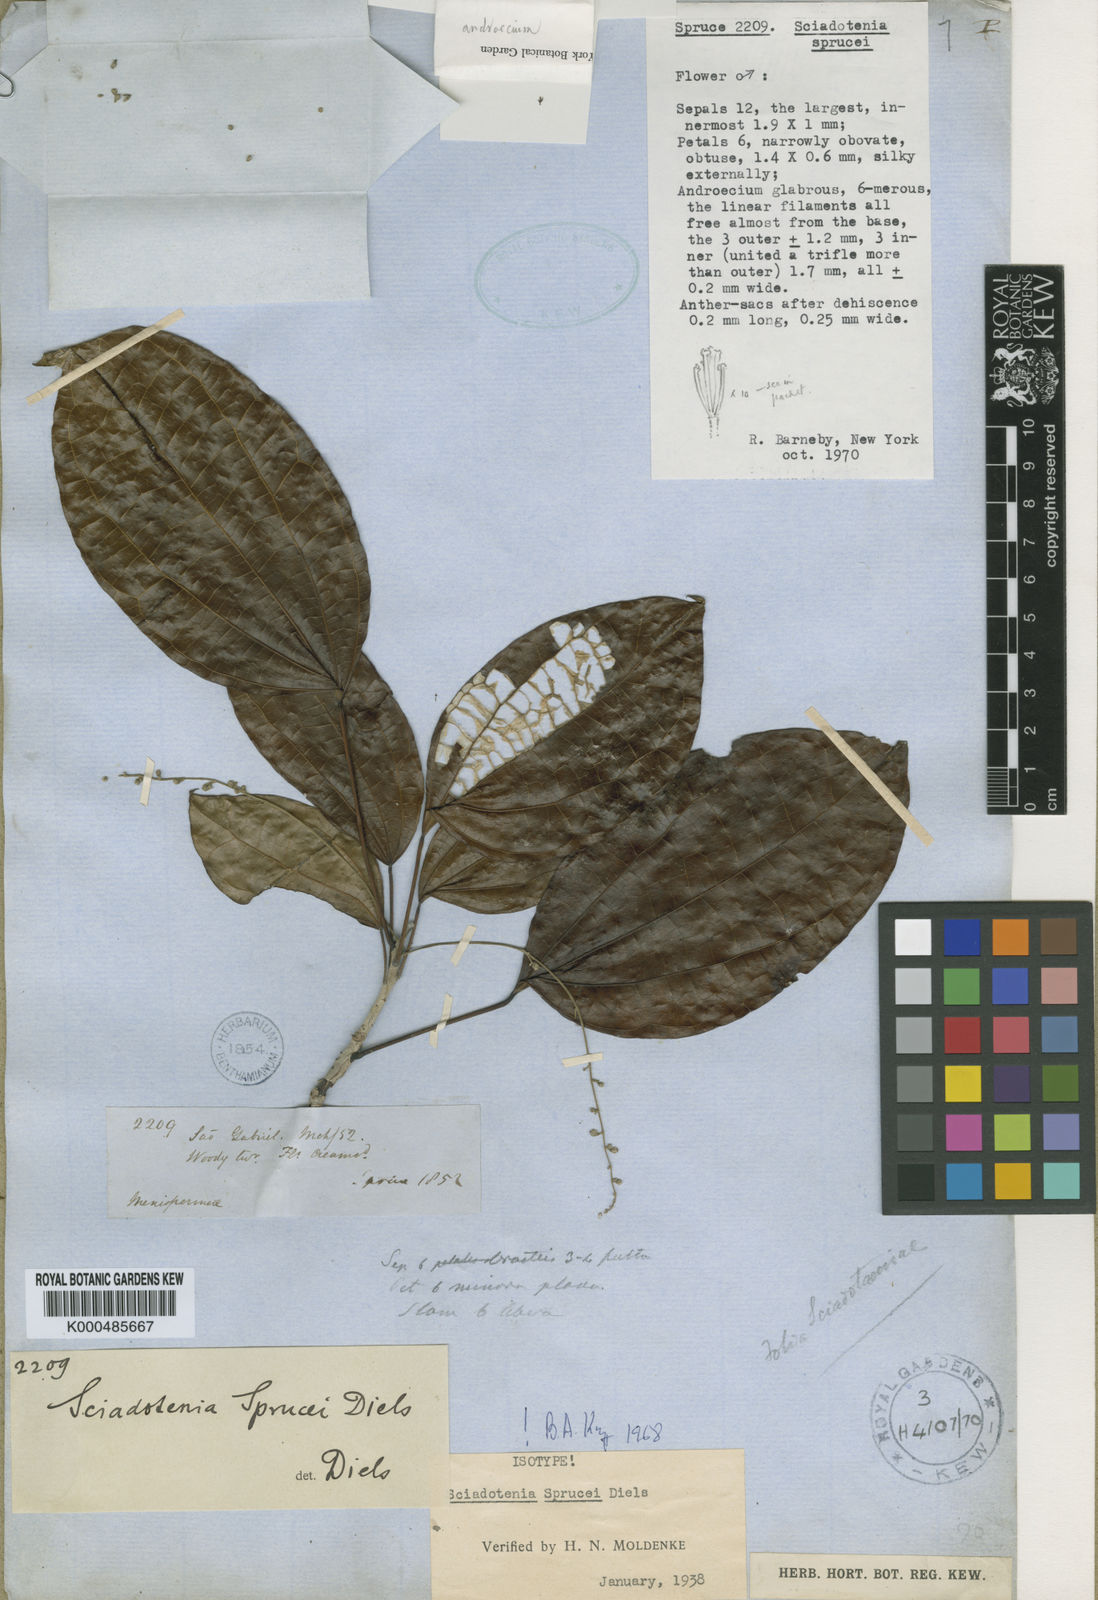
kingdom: Plantae
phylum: Tracheophyta
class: Magnoliopsida
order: Ranunculales
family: Menispermaceae
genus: Sciadotenia
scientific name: Sciadotenia sprucei
